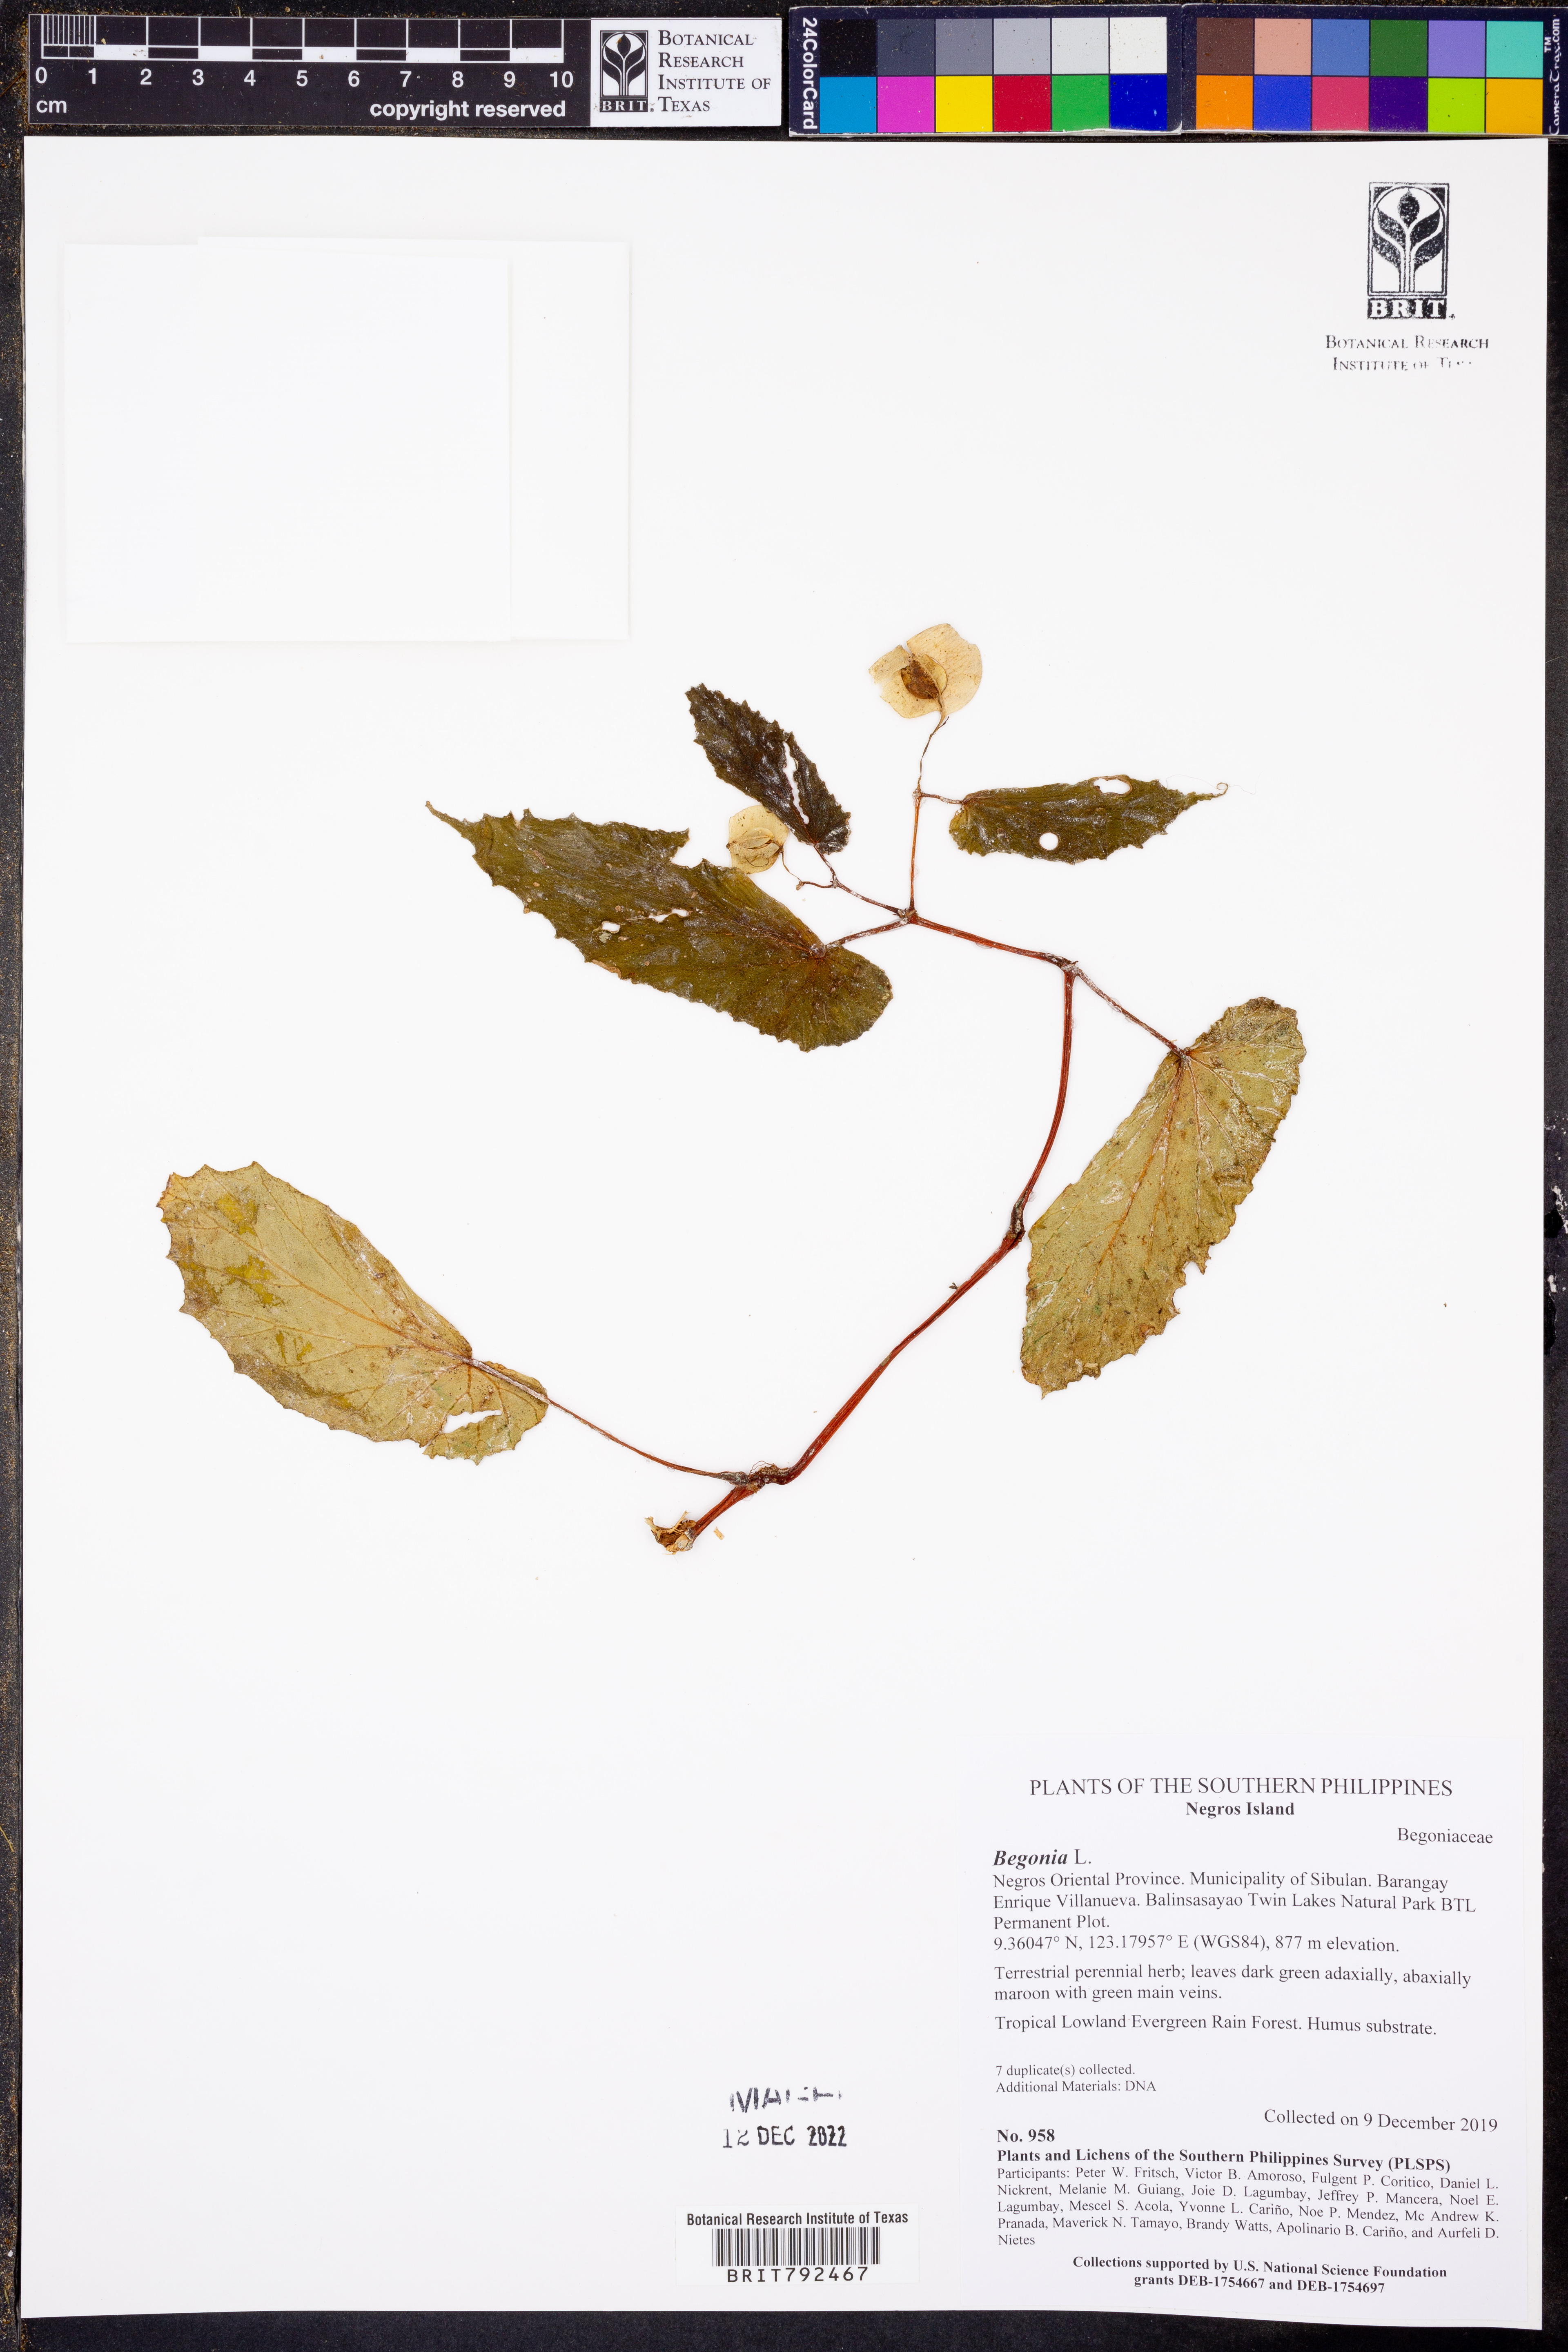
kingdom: Plantae
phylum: Tracheophyta
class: Magnoliopsida
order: Cucurbitales
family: Begoniaceae
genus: Begonia
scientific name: Begonia
